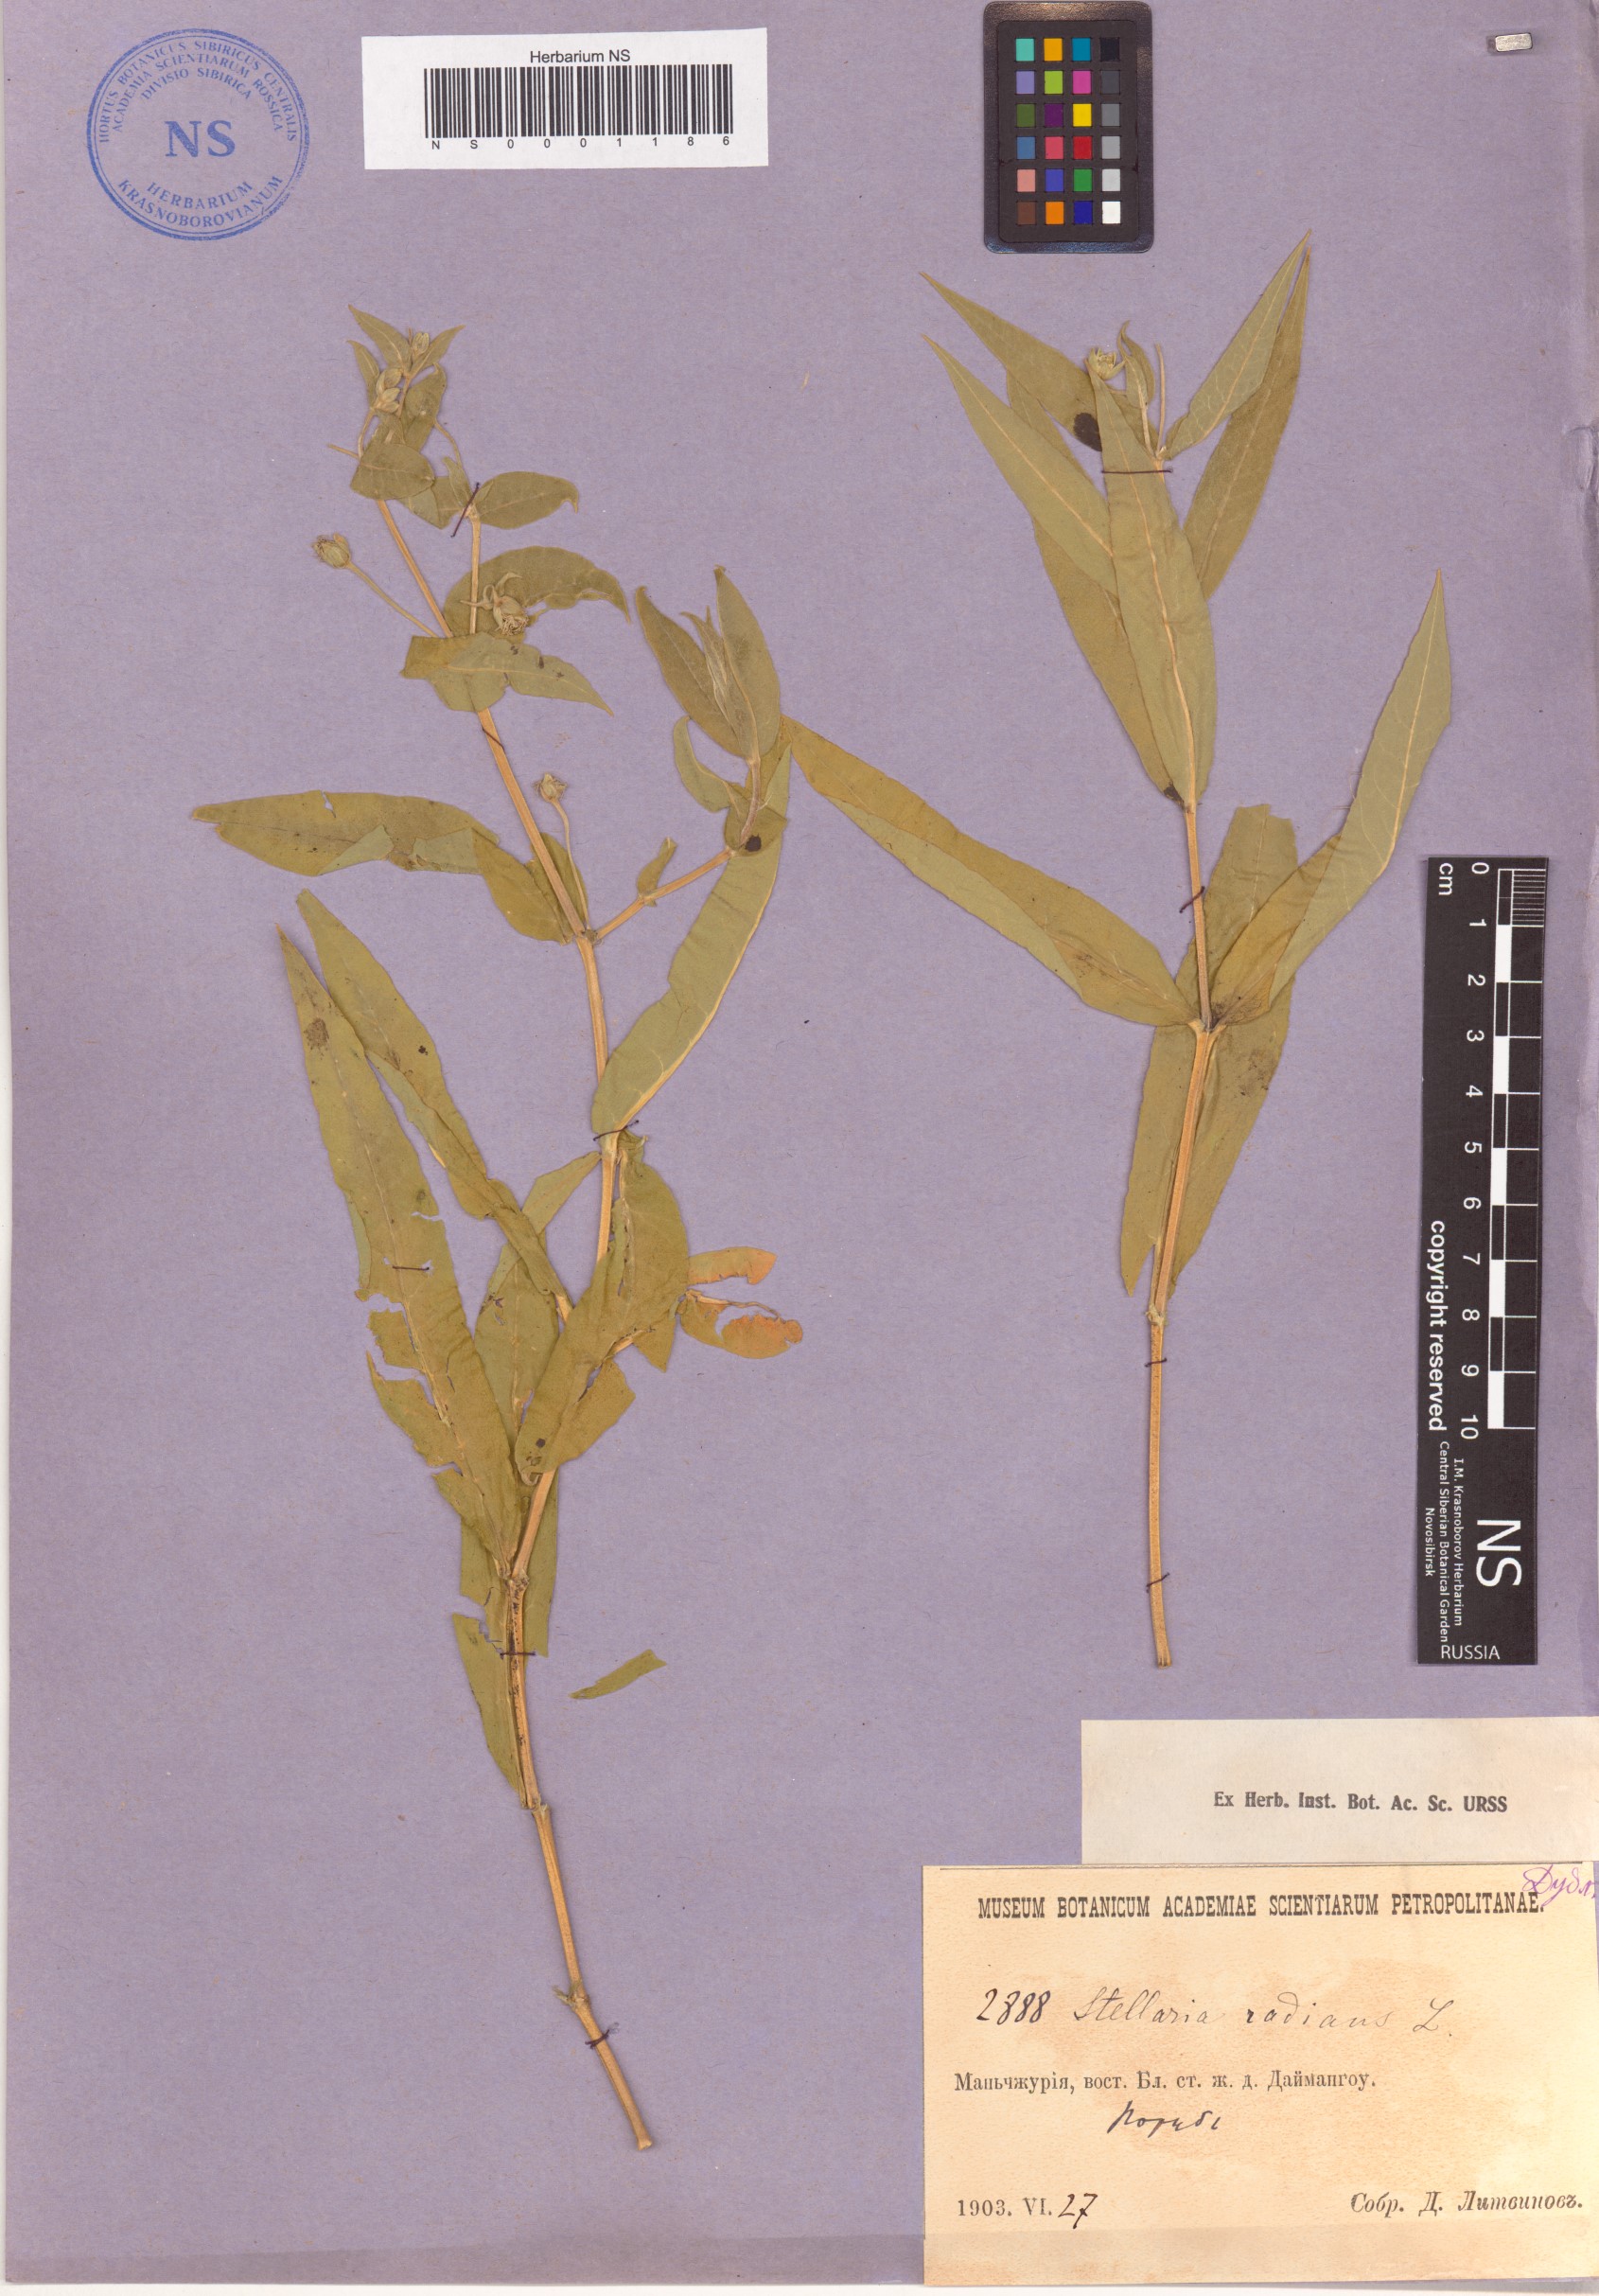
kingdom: Plantae
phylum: Tracheophyta
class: Magnoliopsida
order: Caryophyllales
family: Caryophyllaceae
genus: Stellaria
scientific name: Stellaria radians
